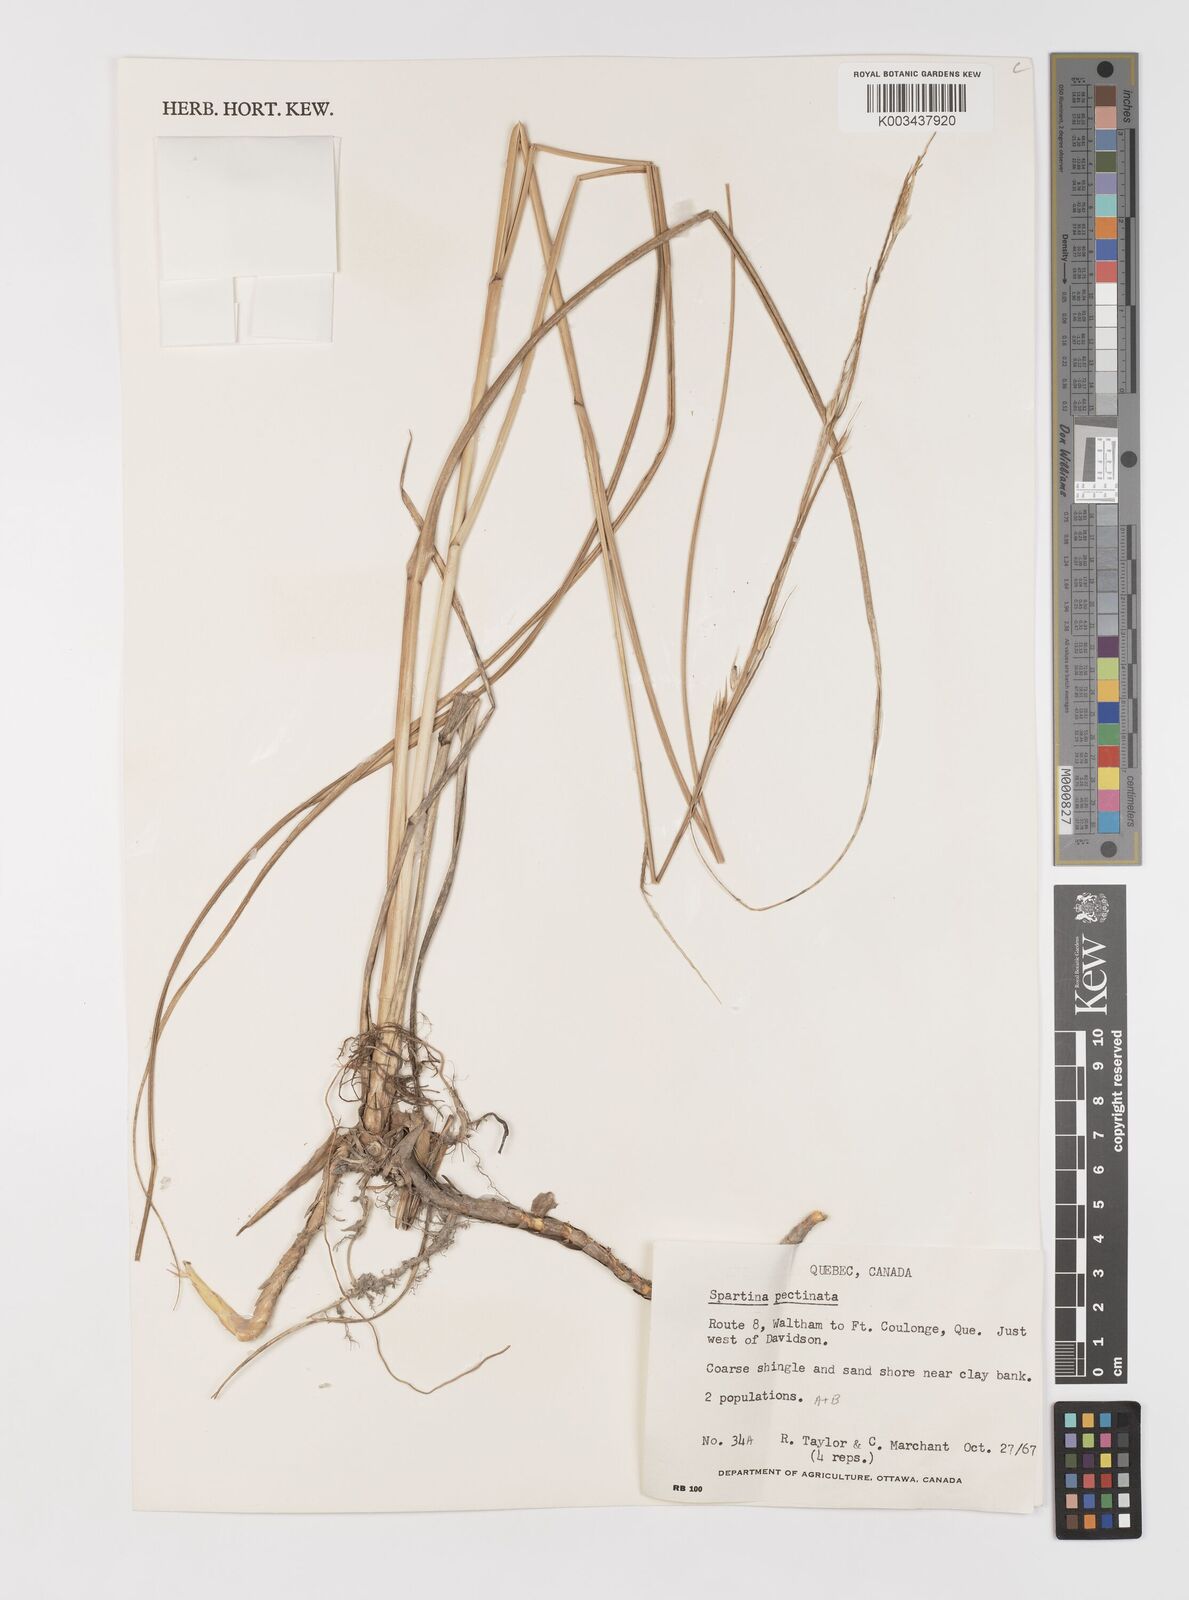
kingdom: Plantae
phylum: Tracheophyta
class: Liliopsida
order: Poales
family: Poaceae
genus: Sporobolus
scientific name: Sporobolus michauxianus
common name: Freshwater cordgrass
